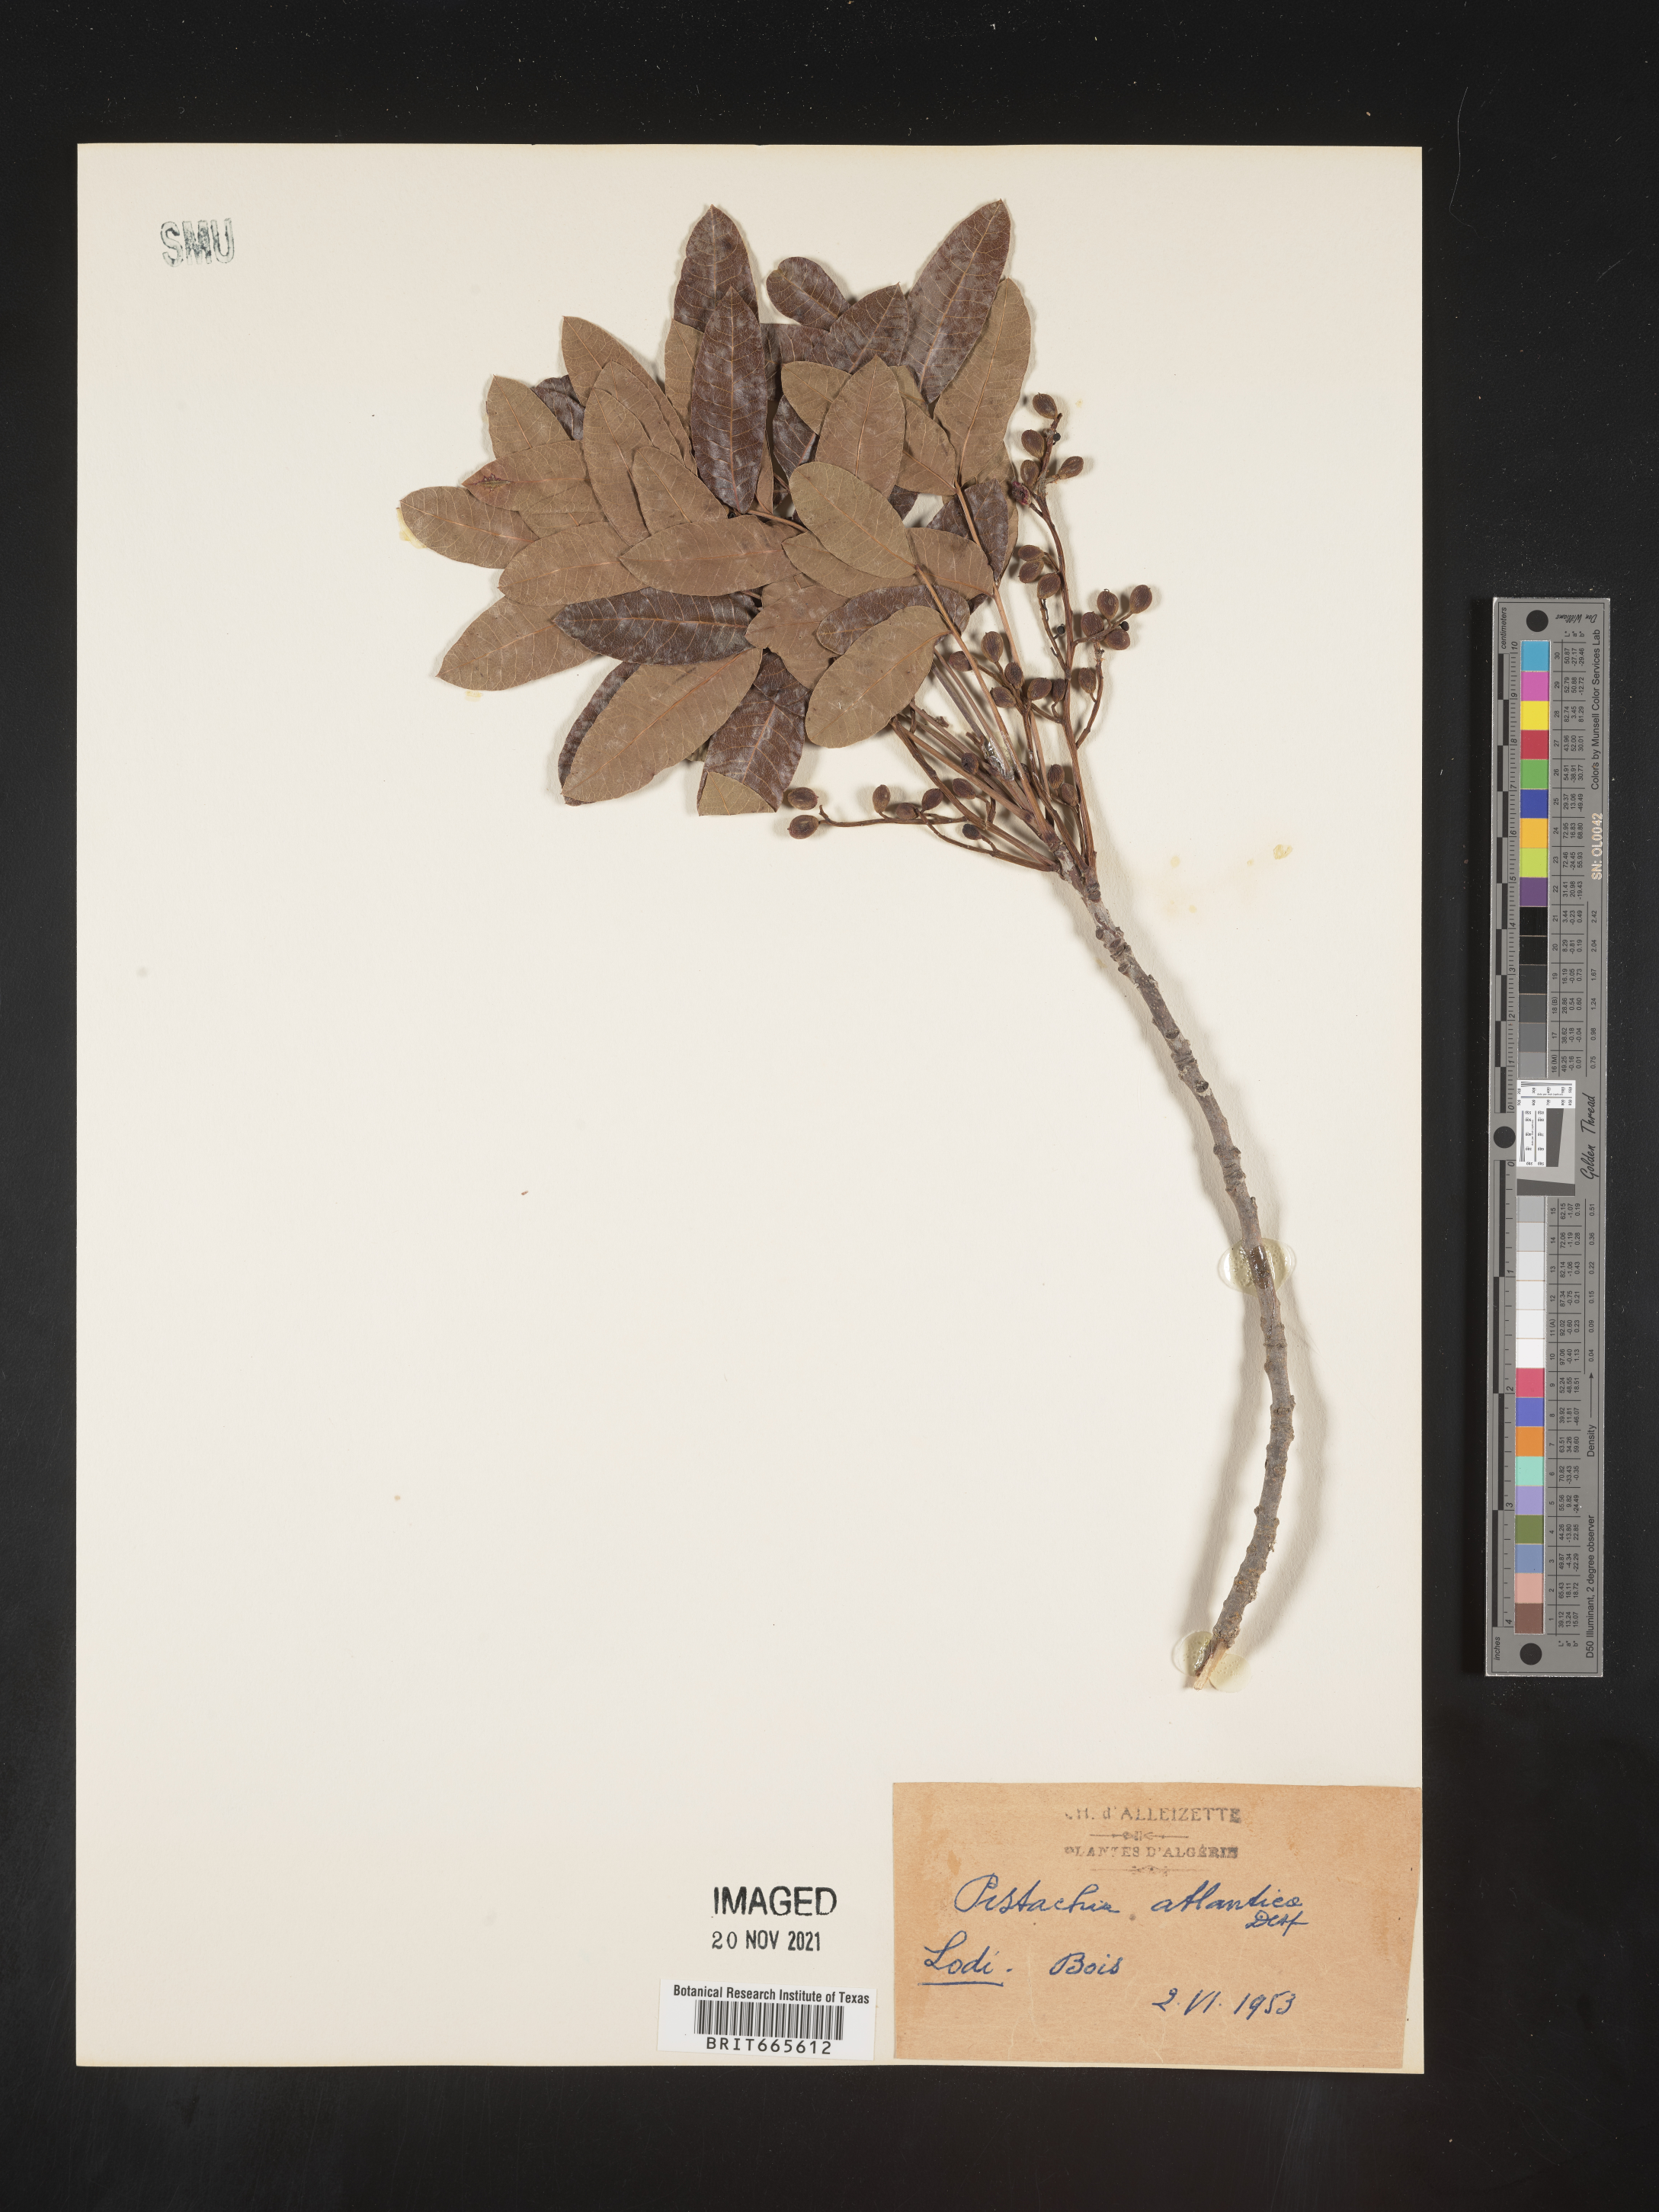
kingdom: Plantae
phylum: Tracheophyta
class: Magnoliopsida
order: Sapindales
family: Anacardiaceae
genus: Pistacia
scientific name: Pistacia
